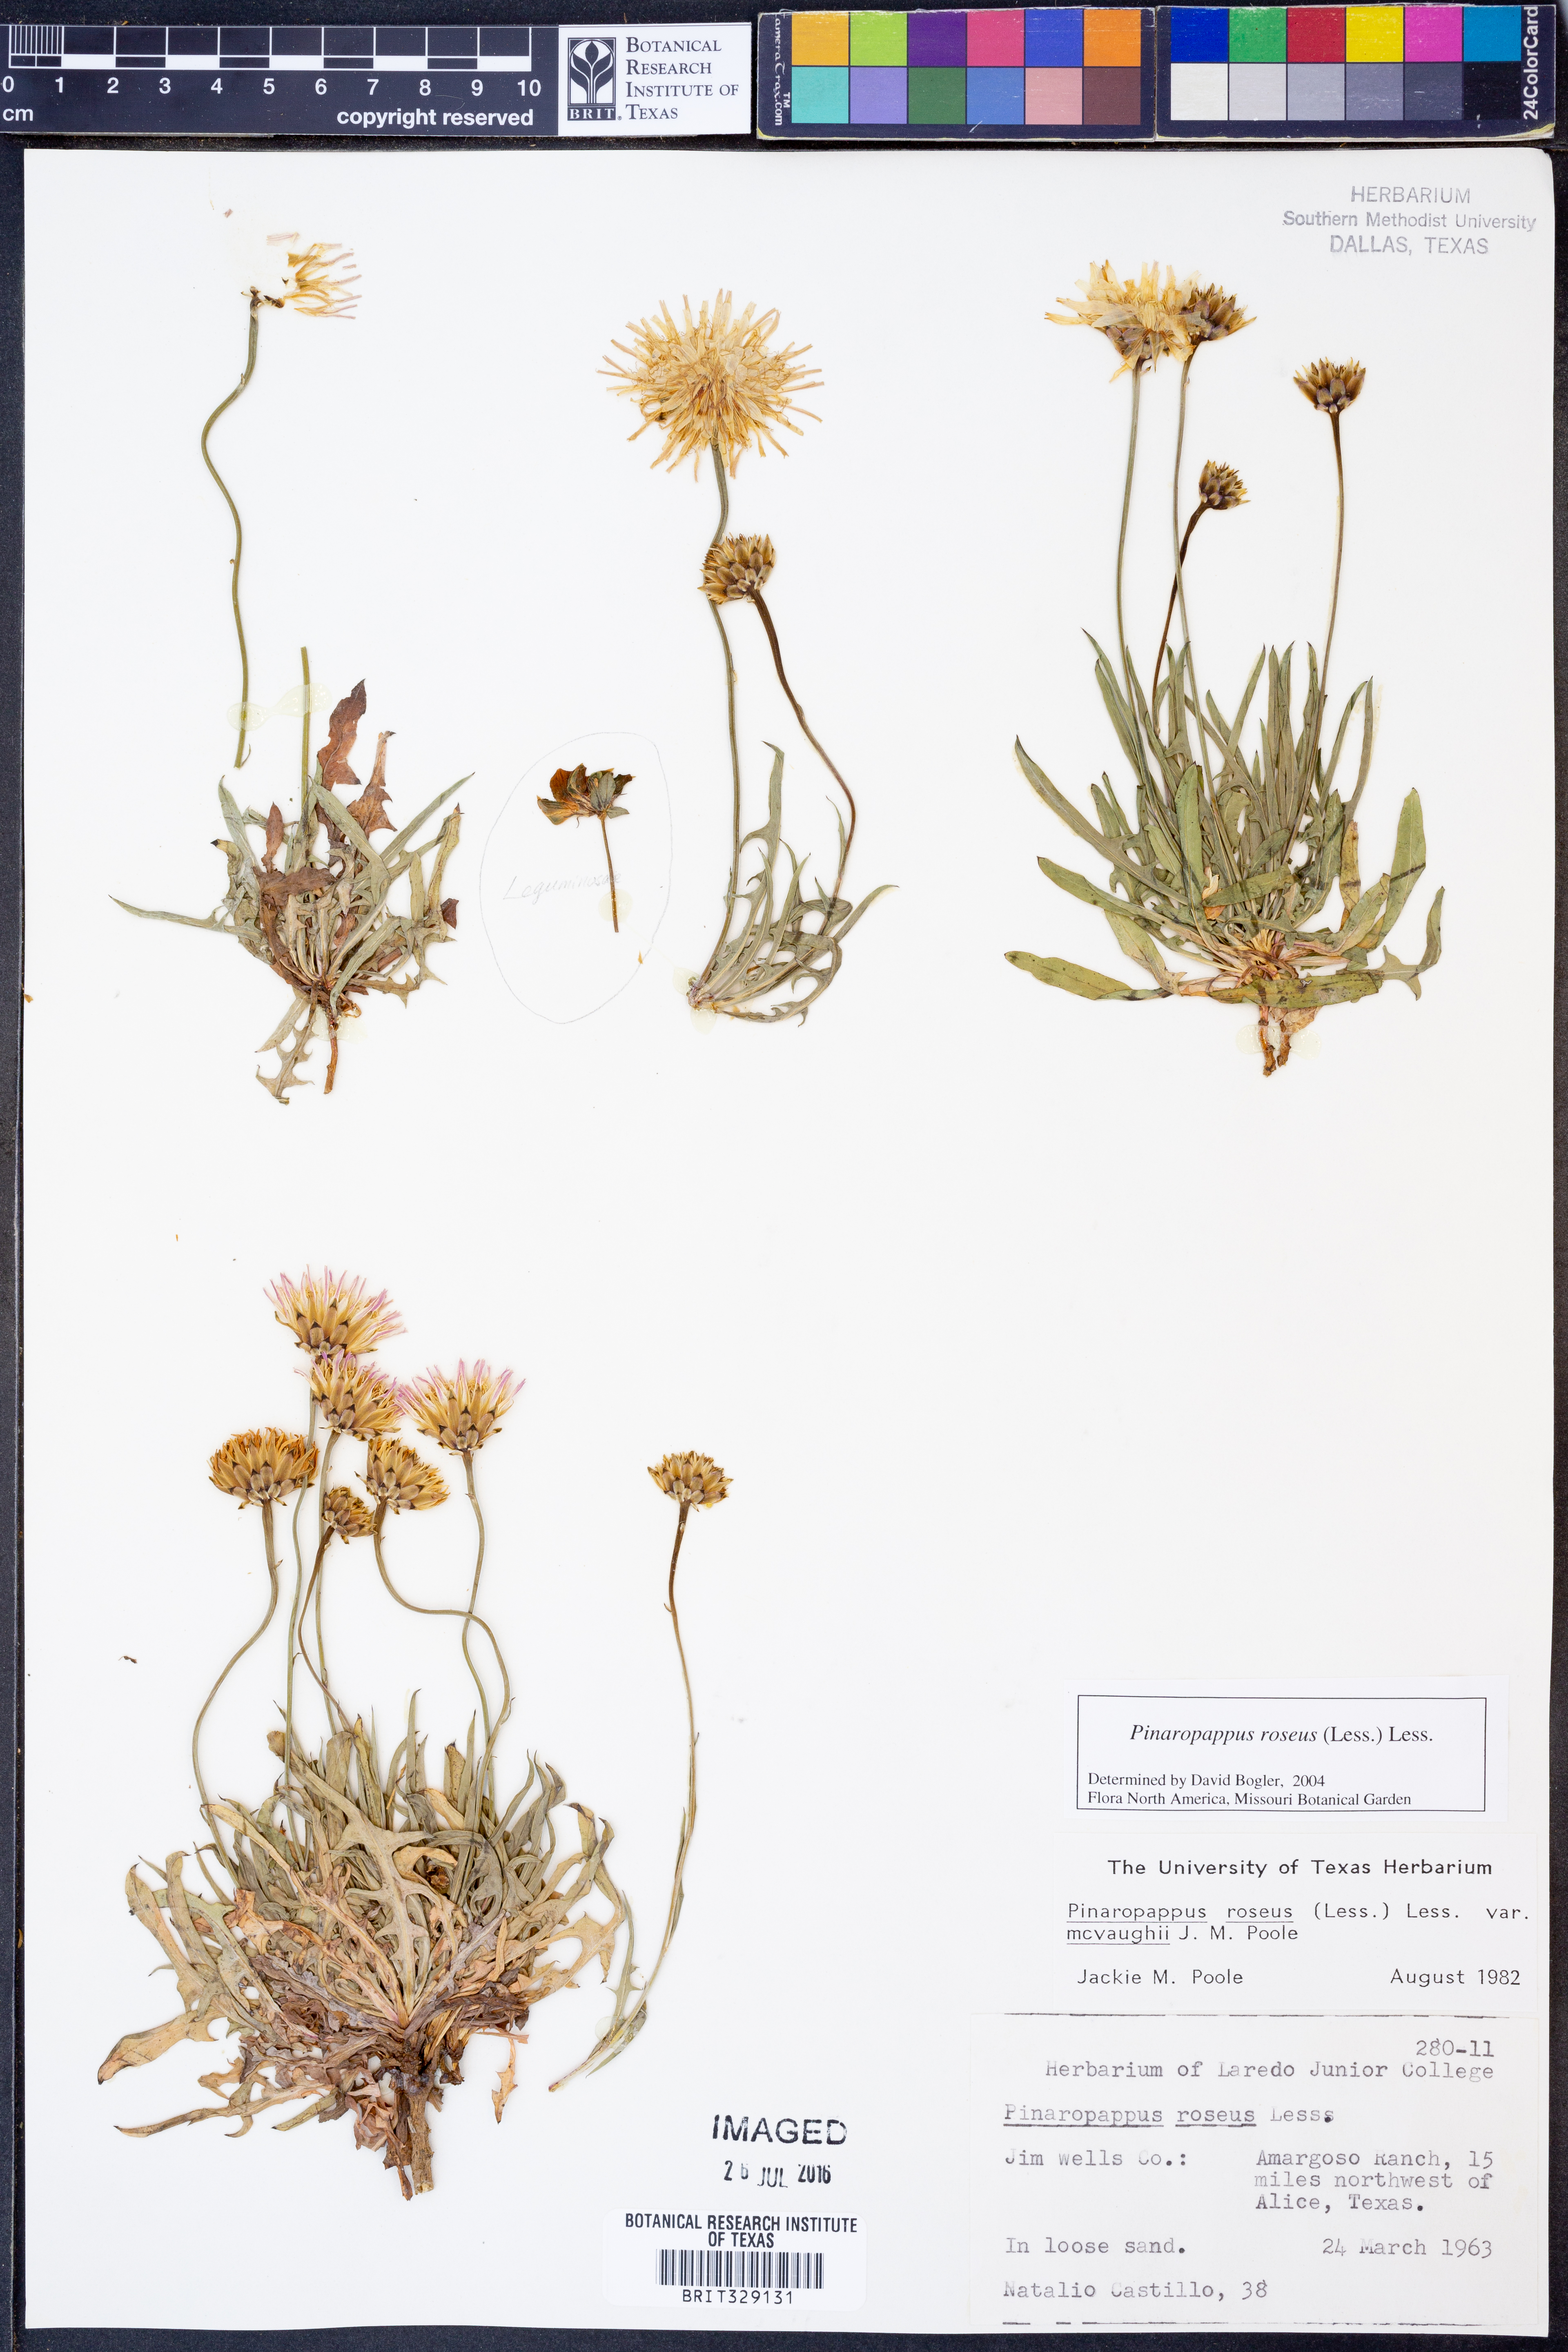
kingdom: Plantae
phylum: Tracheophyta
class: Magnoliopsida
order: Asterales
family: Asteraceae
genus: Pinaropappus
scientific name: Pinaropappus roseus
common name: Rock-lettuce
